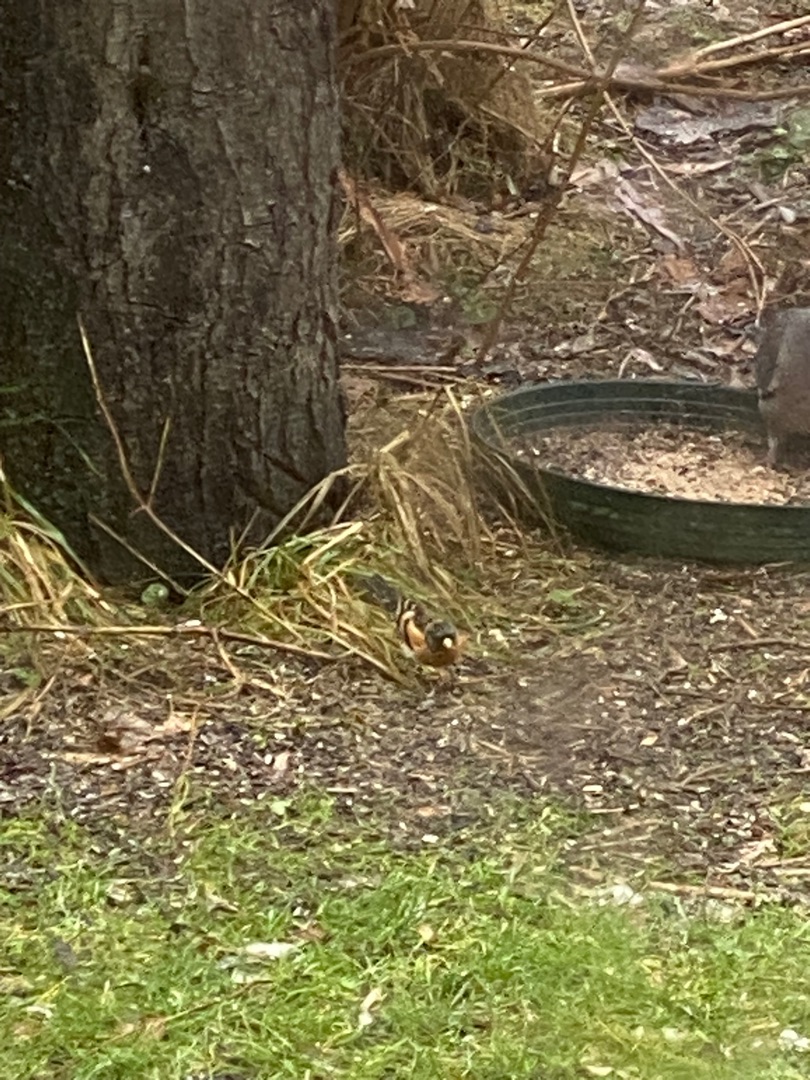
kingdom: Animalia
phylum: Chordata
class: Aves
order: Passeriformes
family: Fringillidae
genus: Fringilla
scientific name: Fringilla montifringilla
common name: Kvækerfinke
